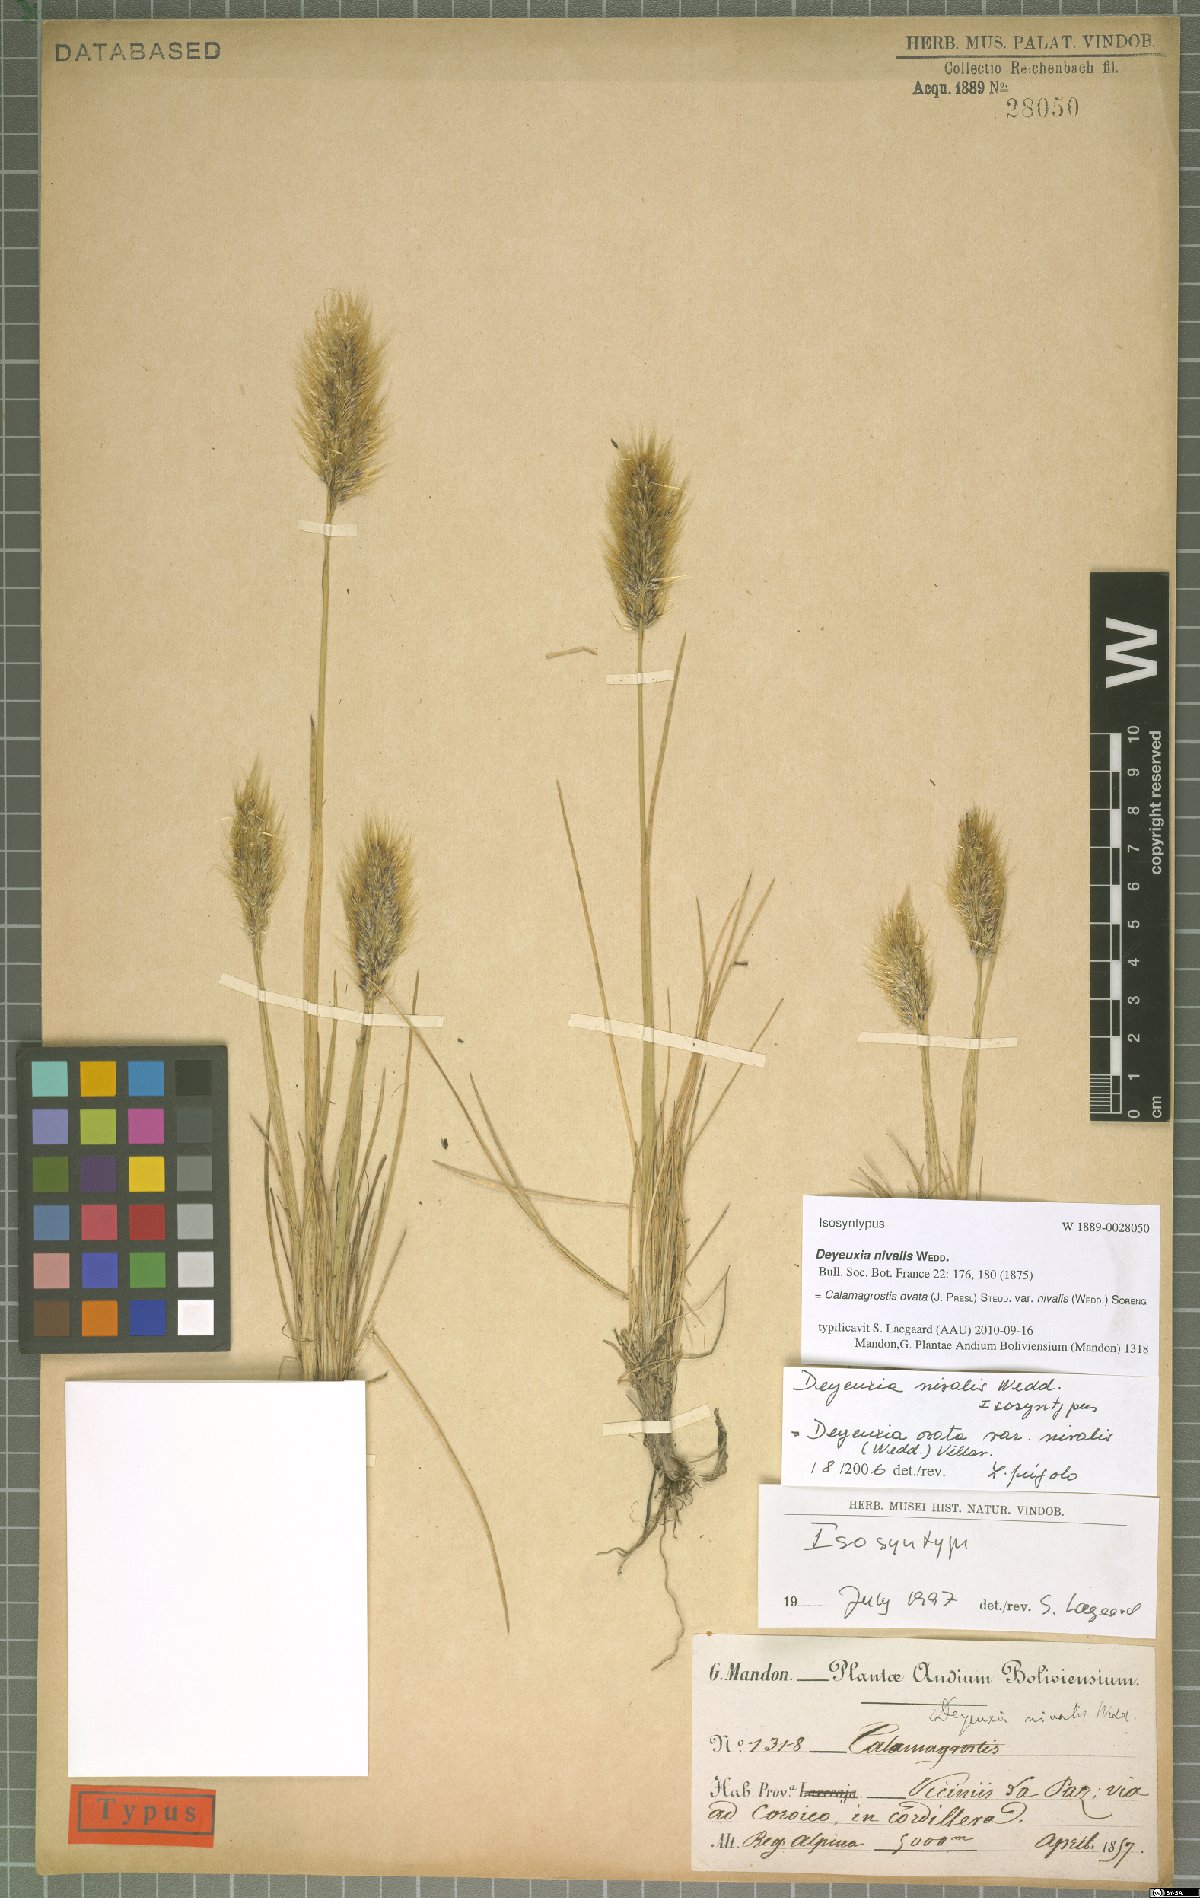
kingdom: Plantae
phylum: Tracheophyta
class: Liliopsida
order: Poales
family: Poaceae
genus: Deschampsia
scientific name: Deschampsia ovata
